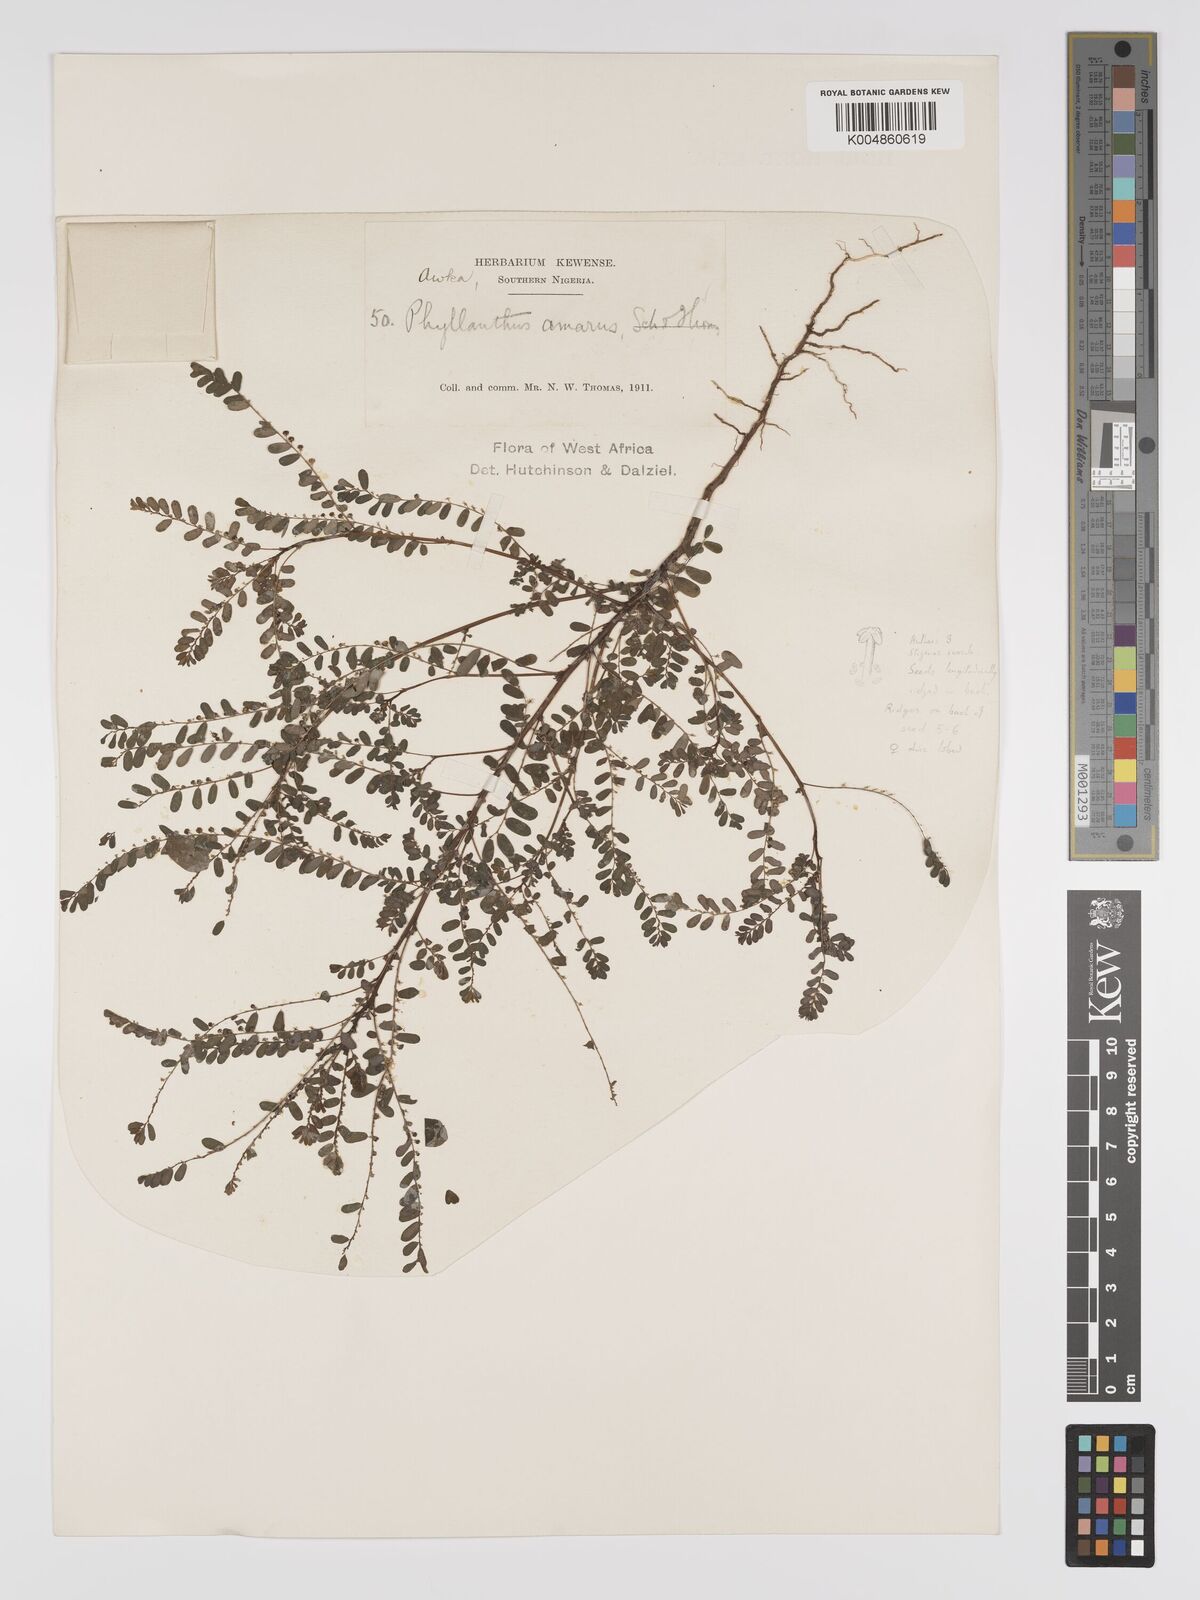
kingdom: Plantae
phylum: Tracheophyta
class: Magnoliopsida
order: Malpighiales
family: Phyllanthaceae
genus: Phyllanthus
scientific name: Phyllanthus amarus
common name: Carry me seed
